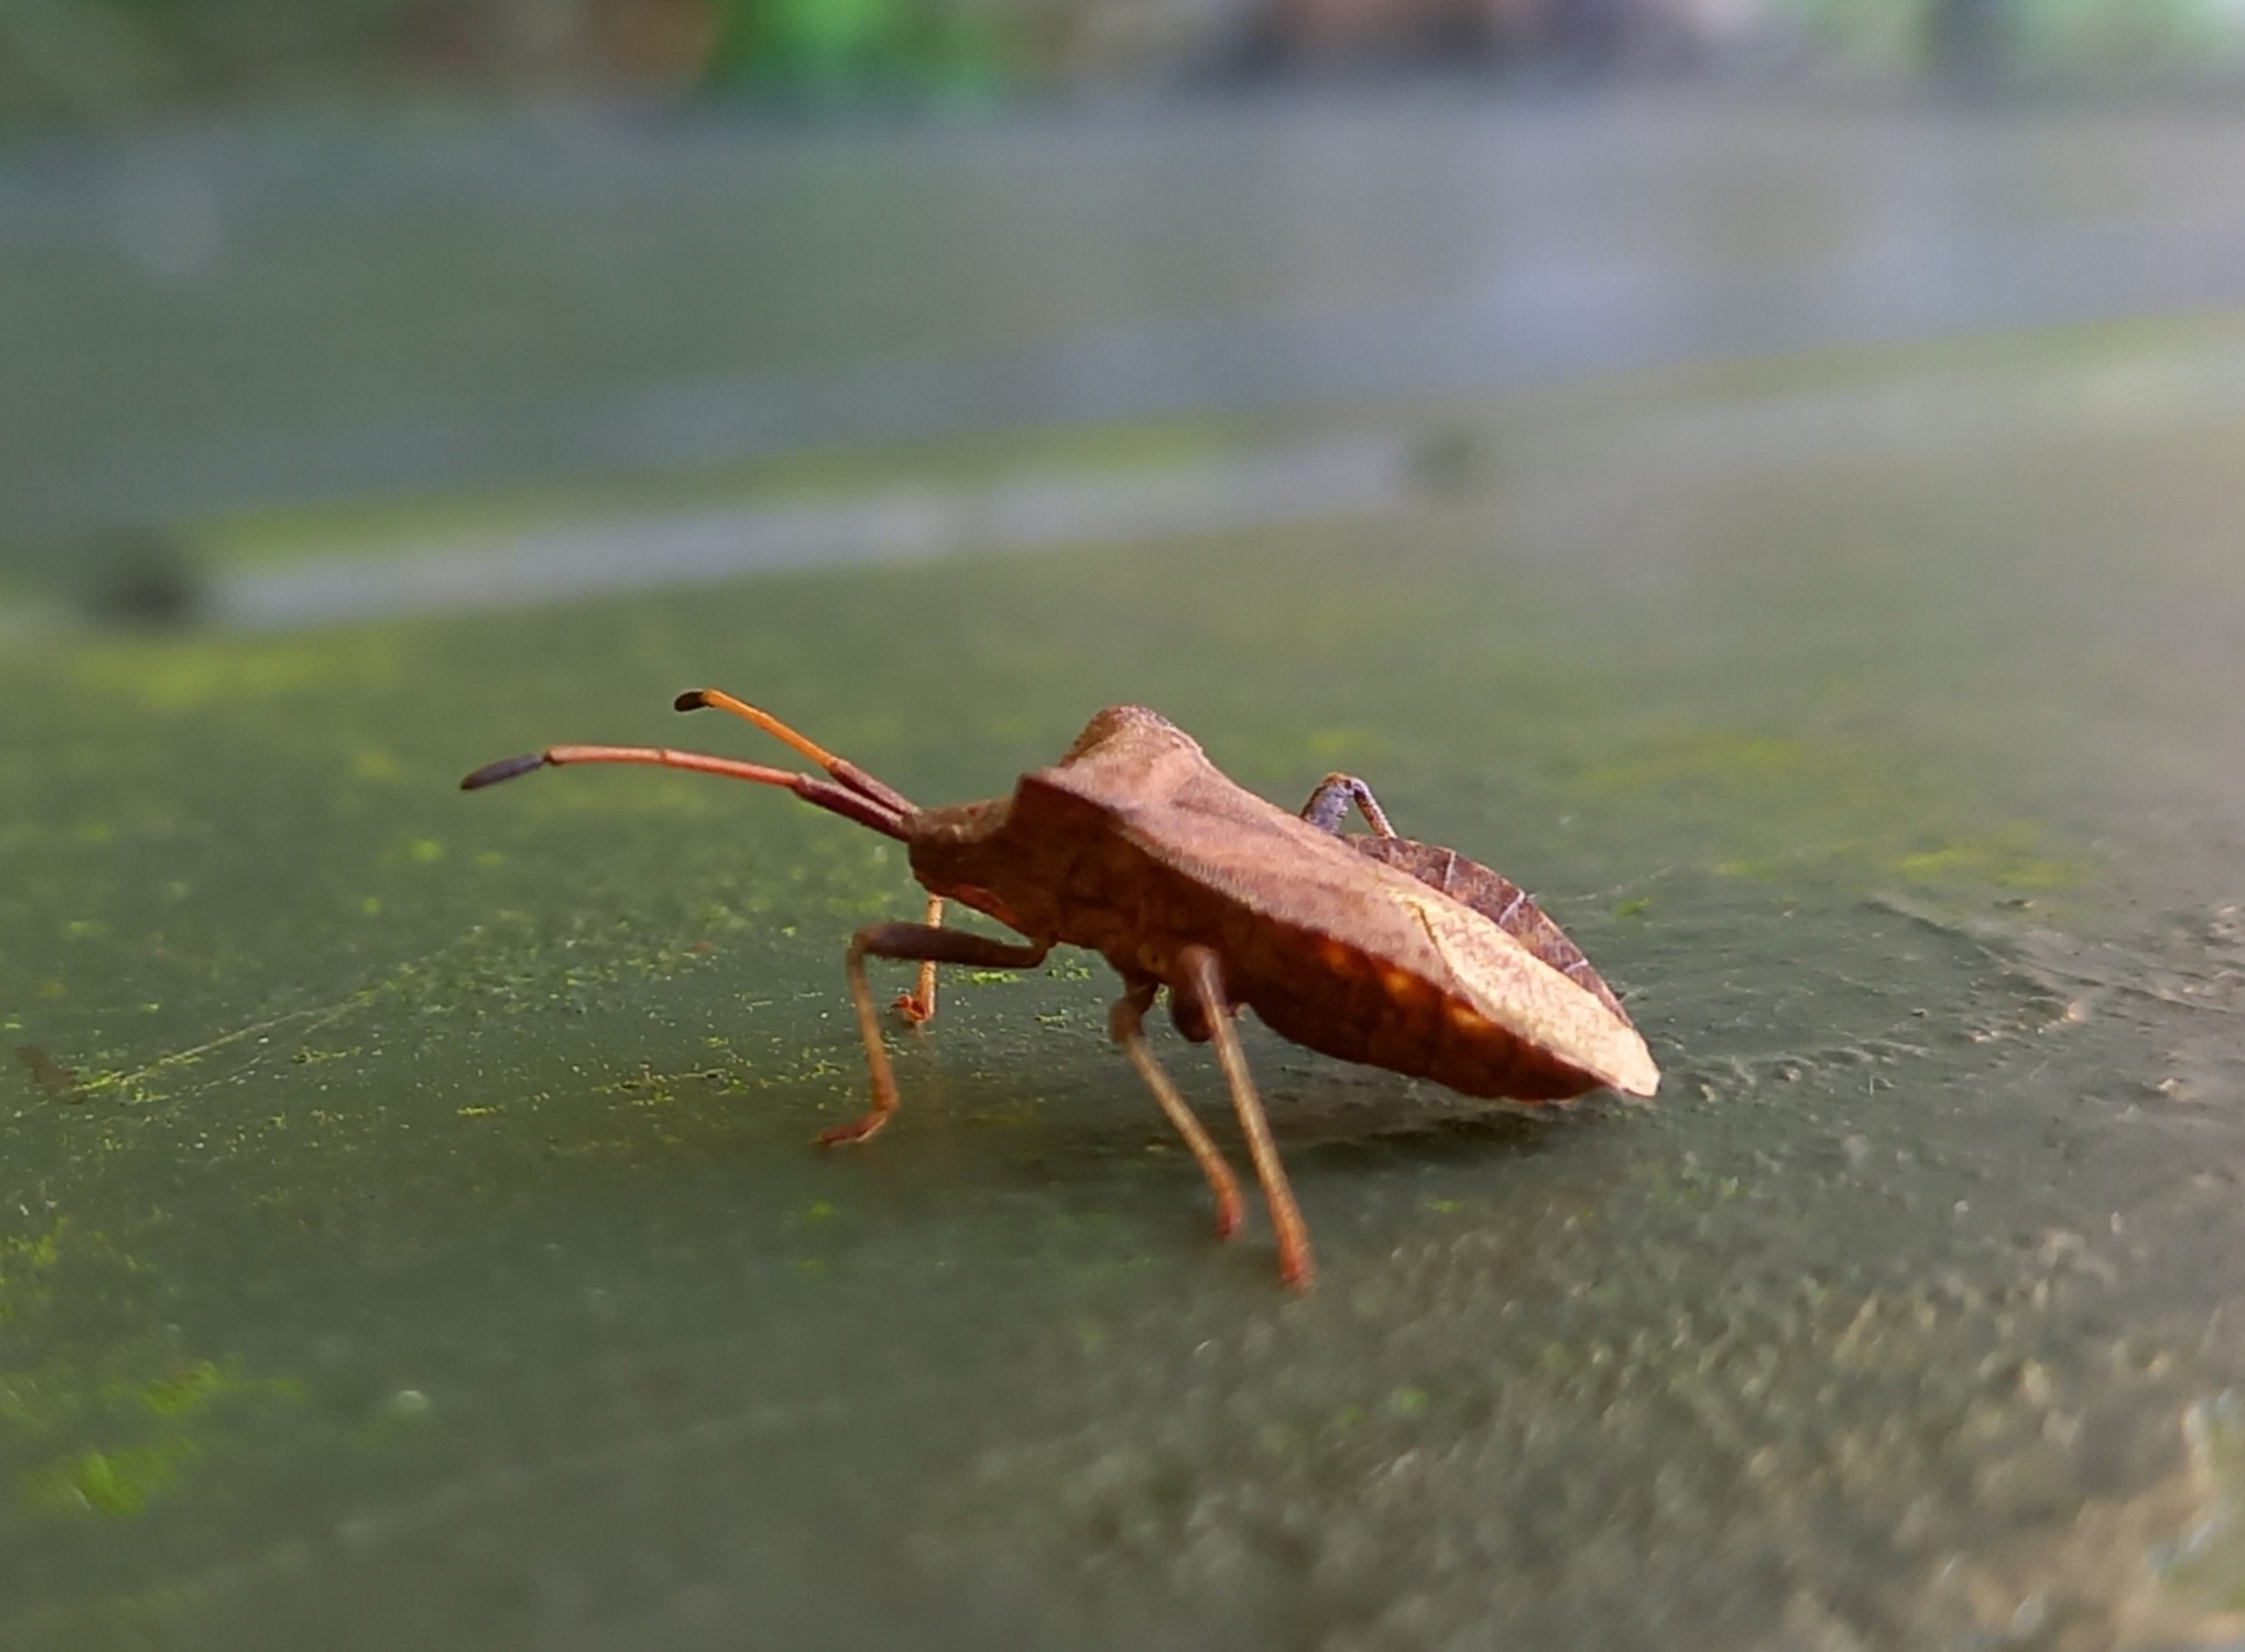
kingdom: Animalia
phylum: Arthropoda
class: Insecta
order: Hemiptera
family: Coreidae
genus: Coreus
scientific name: Coreus marginatus
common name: Skræppetæge
